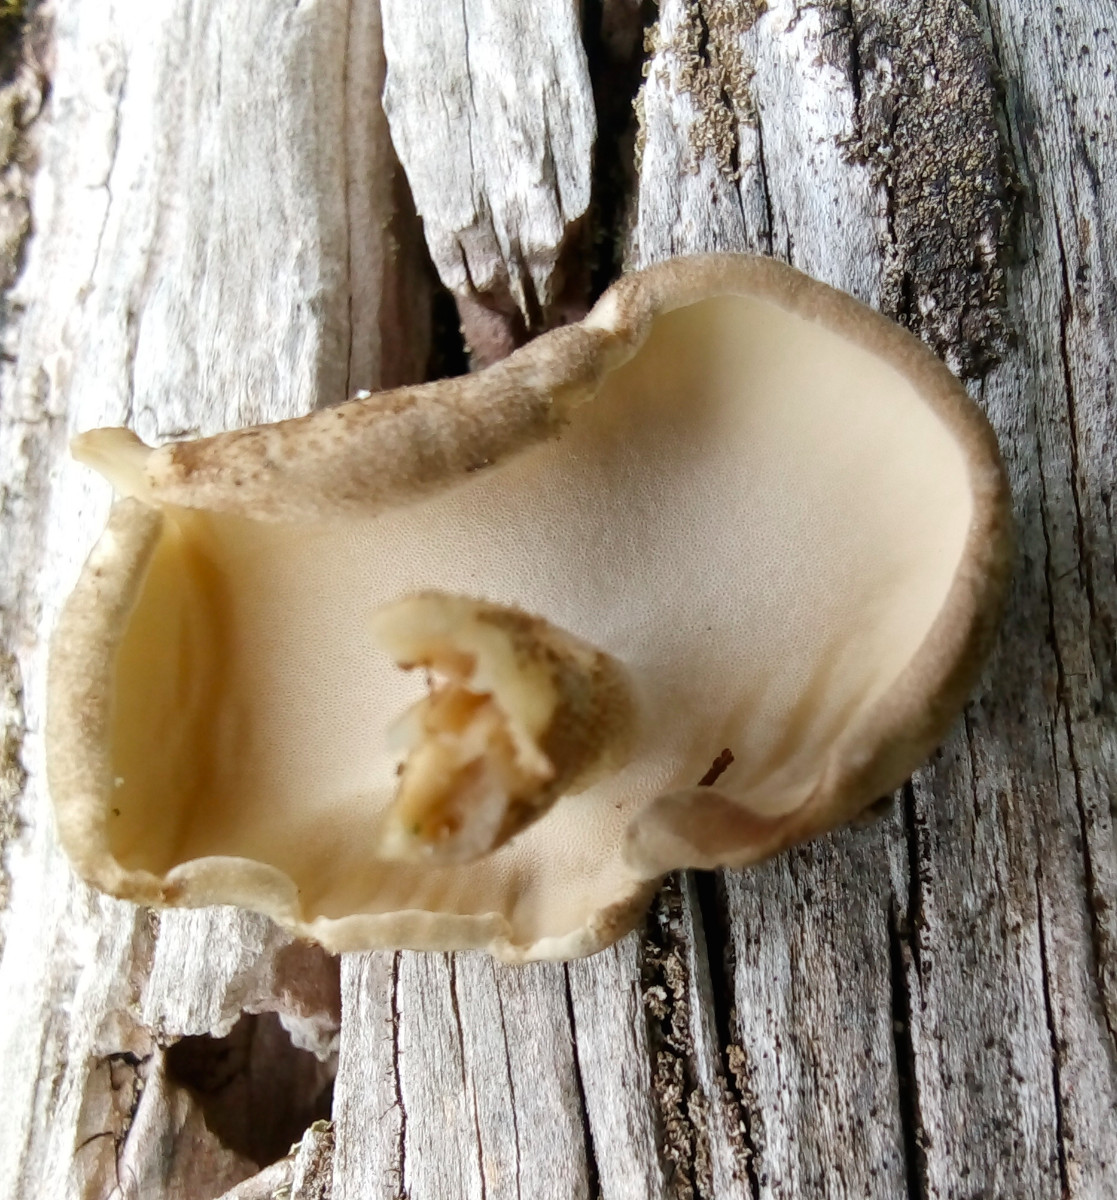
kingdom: Fungi
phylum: Basidiomycota
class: Agaricomycetes
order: Polyporales
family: Polyporaceae
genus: Lentinus
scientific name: Lentinus substrictus
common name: forårs-stilkporesvamp
